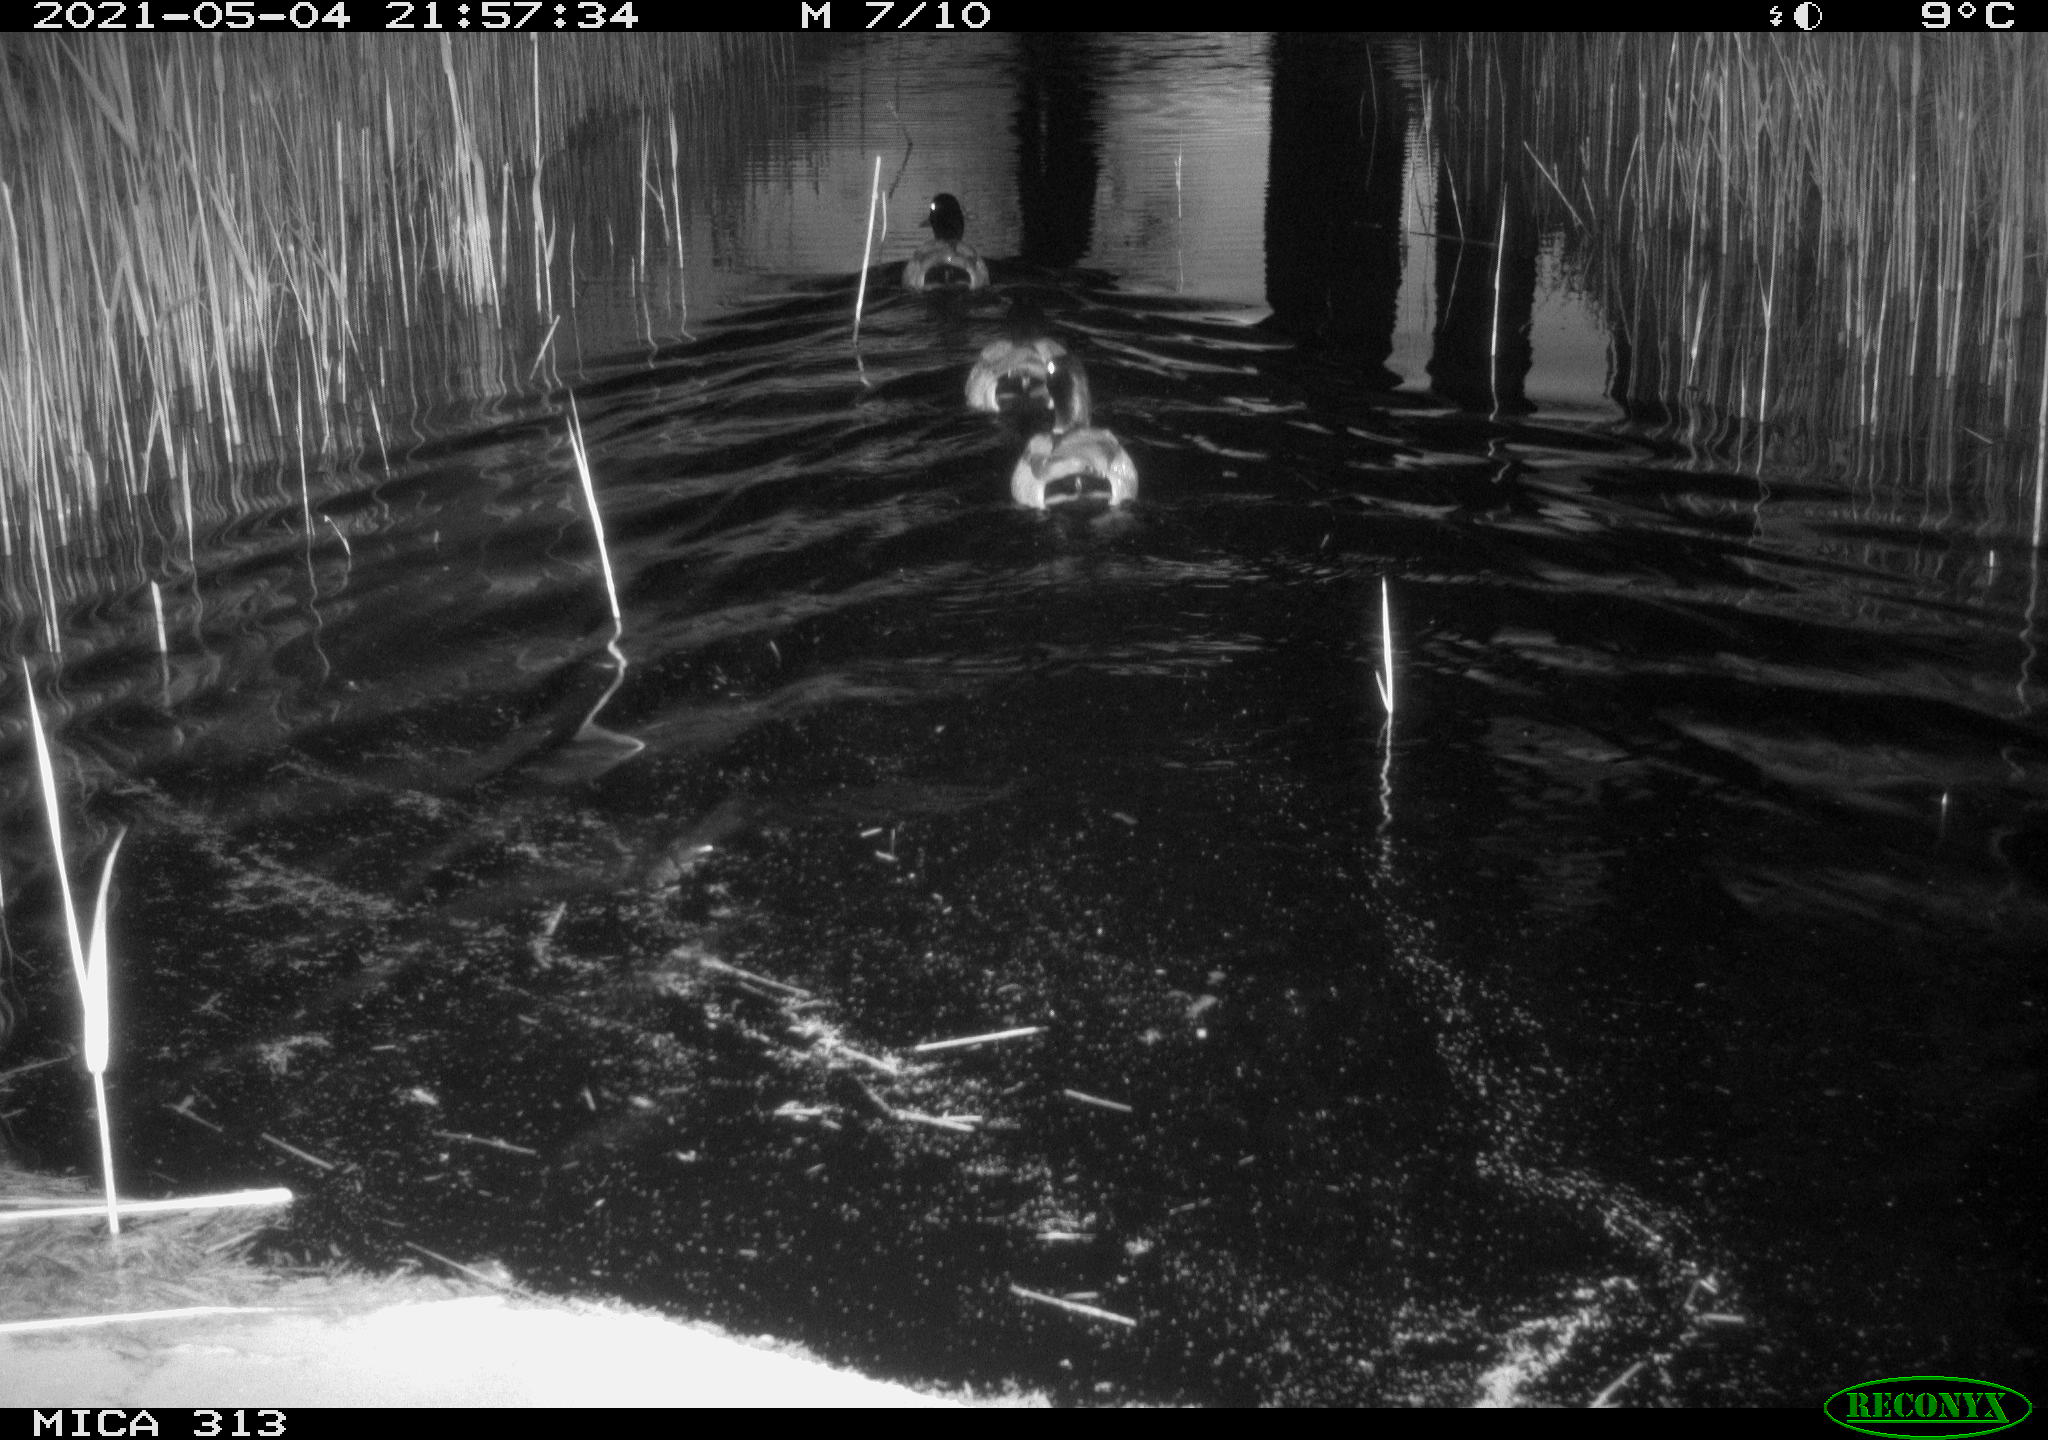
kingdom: Animalia
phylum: Chordata
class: Aves
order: Anseriformes
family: Anatidae
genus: Anas
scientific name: Anas platyrhynchos
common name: Mallard
